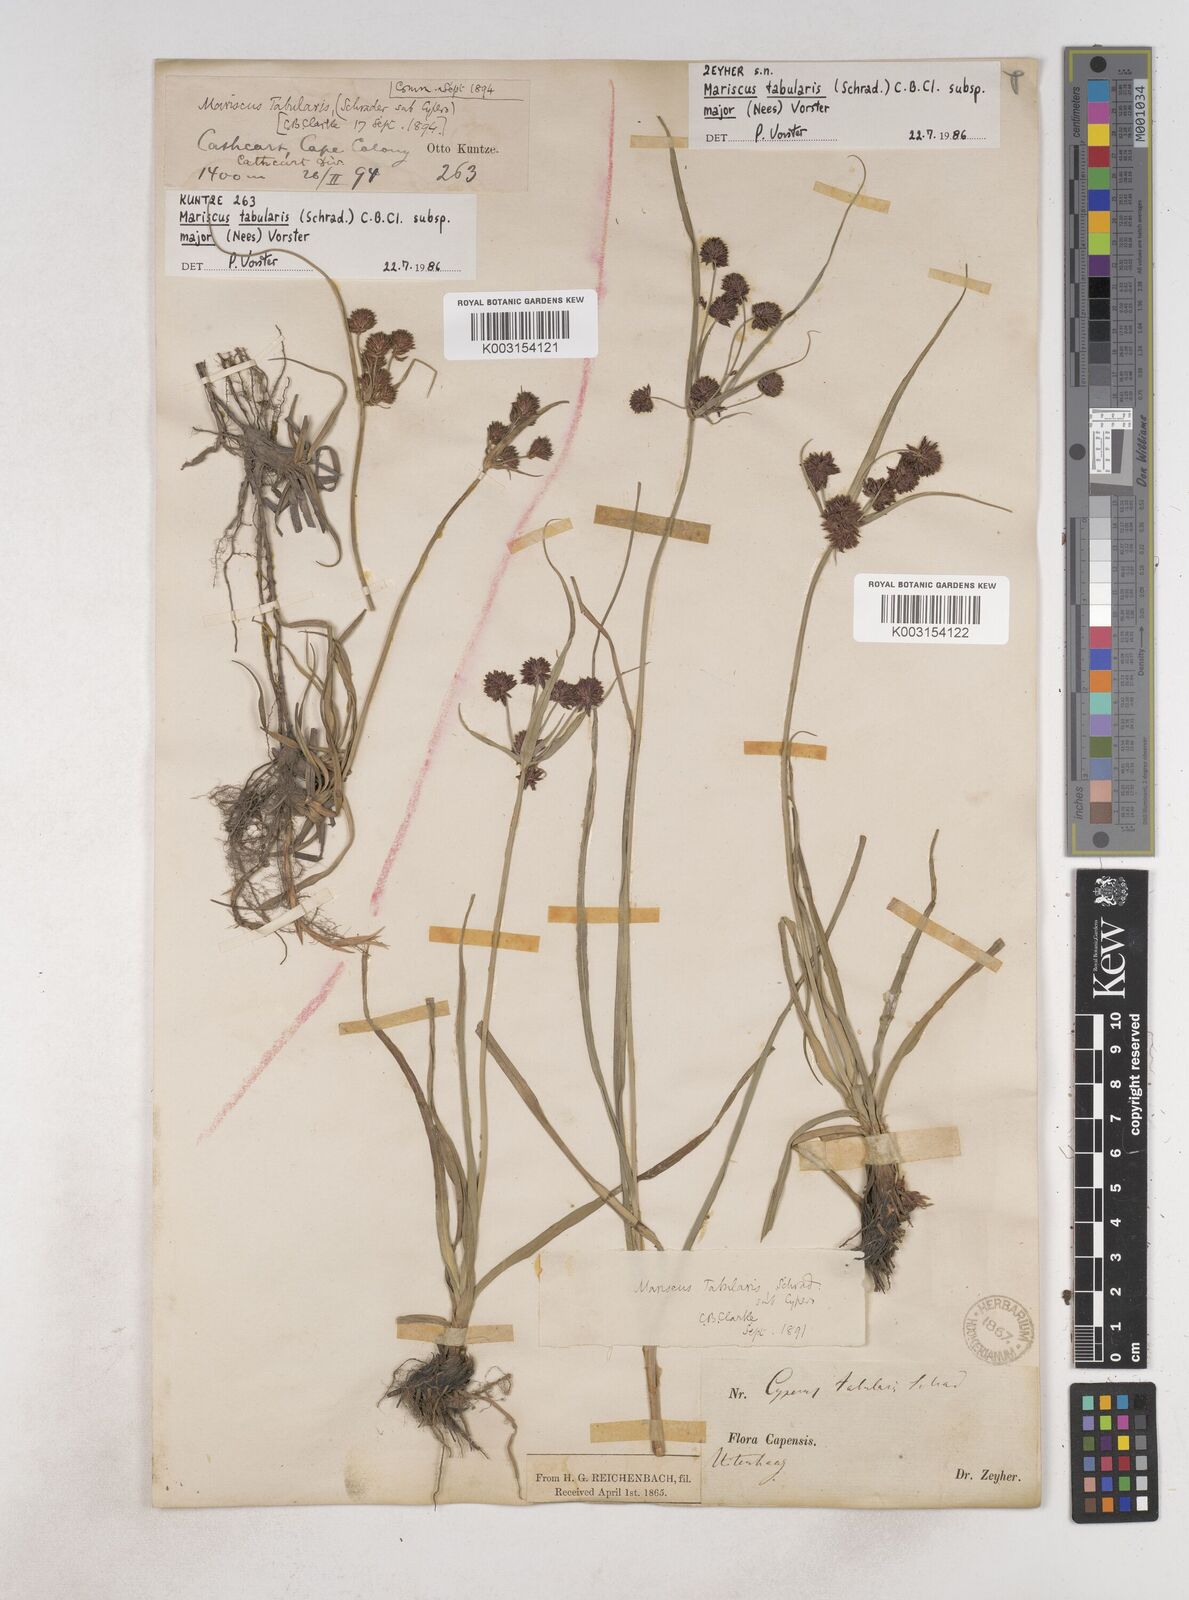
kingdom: Plantae
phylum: Tracheophyta
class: Liliopsida
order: Poales
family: Cyperaceae
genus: Cyperus
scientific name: Cyperus tabularis
